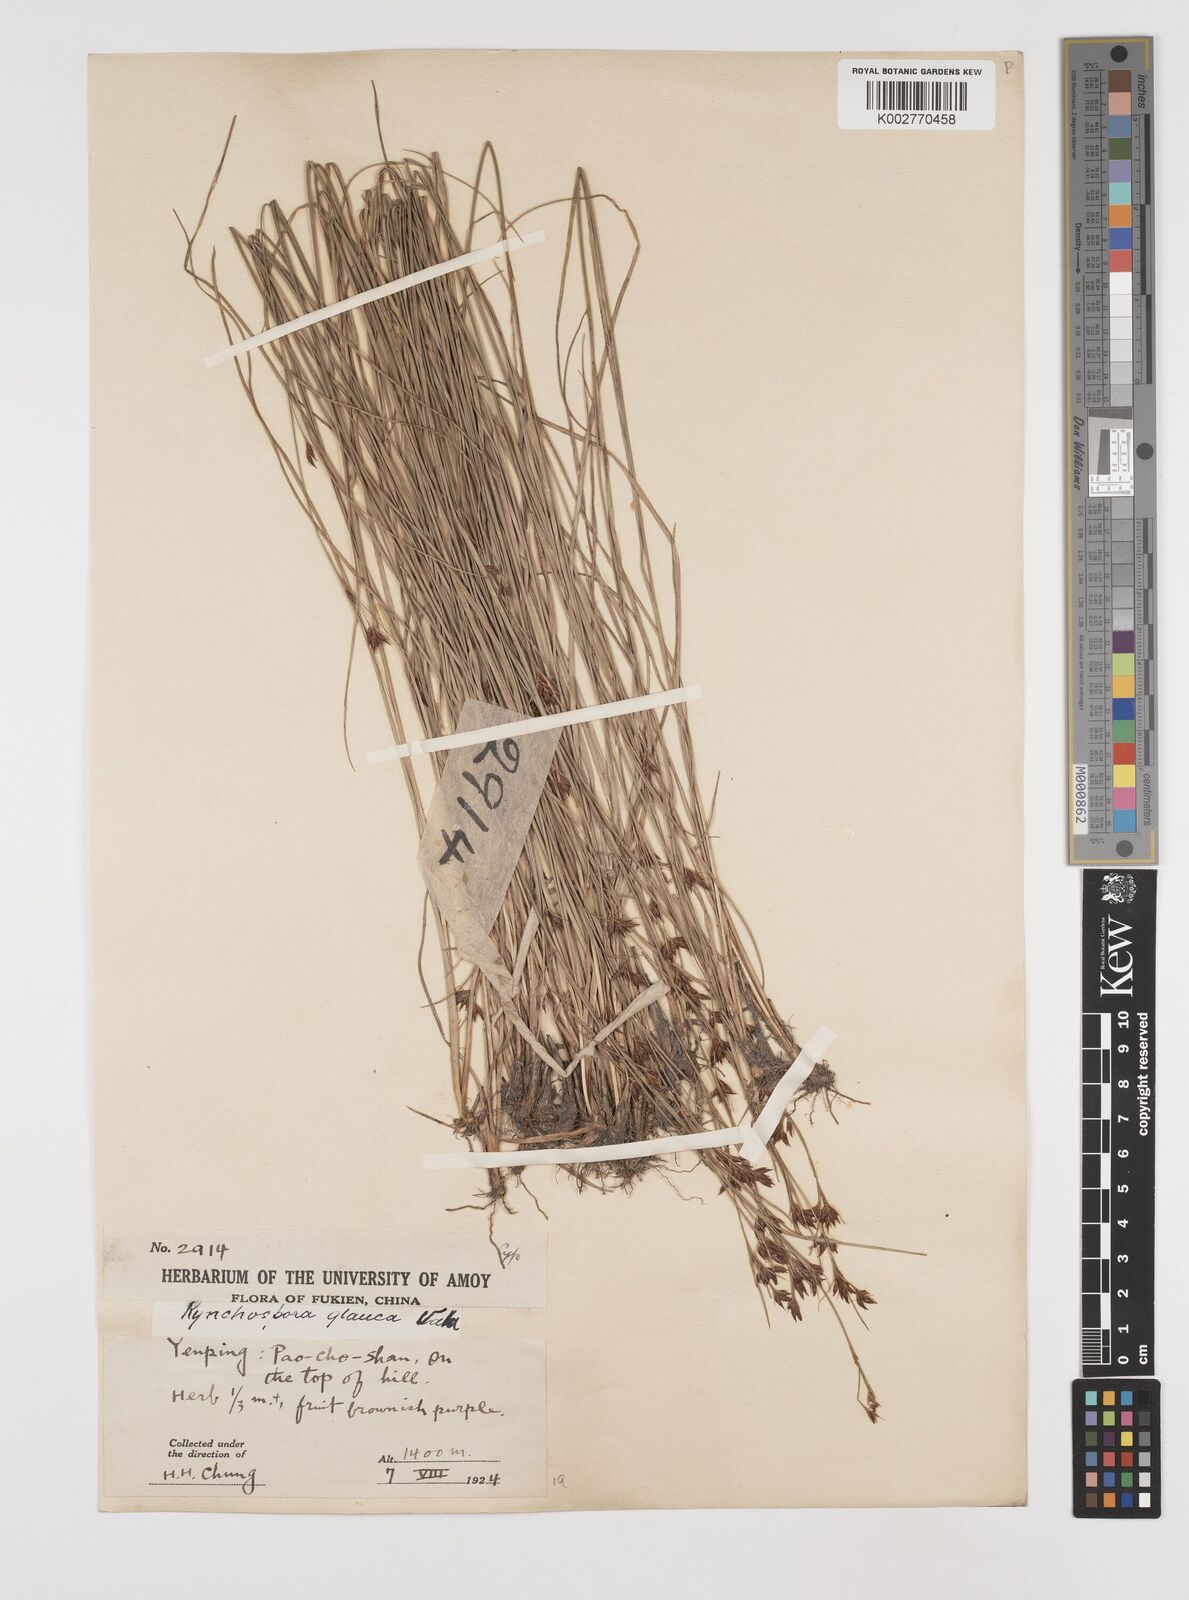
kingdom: Plantae
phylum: Tracheophyta
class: Liliopsida
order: Poales
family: Cyperaceae
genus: Rhynchospora
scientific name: Rhynchospora
